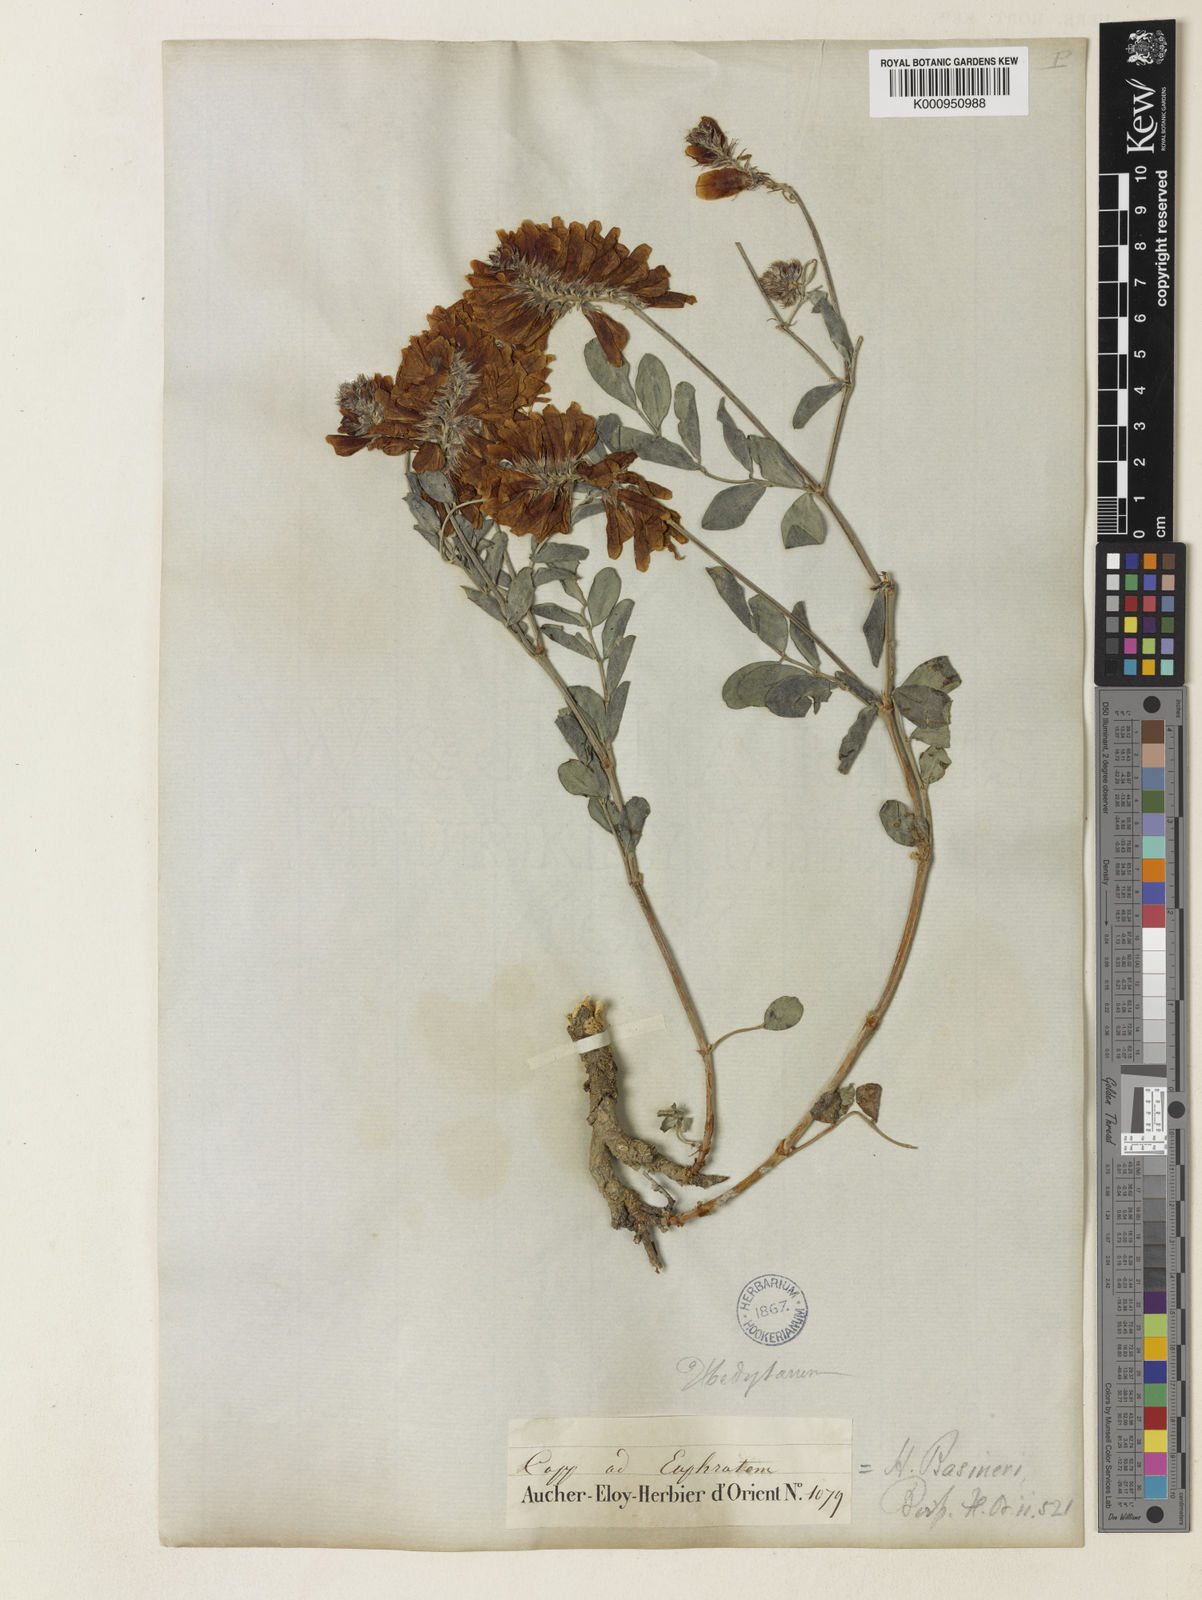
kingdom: Plantae
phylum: Tracheophyta
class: Magnoliopsida
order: Fabales
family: Fabaceae
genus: Hedysarum
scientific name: Hedysarum pestalozzae
